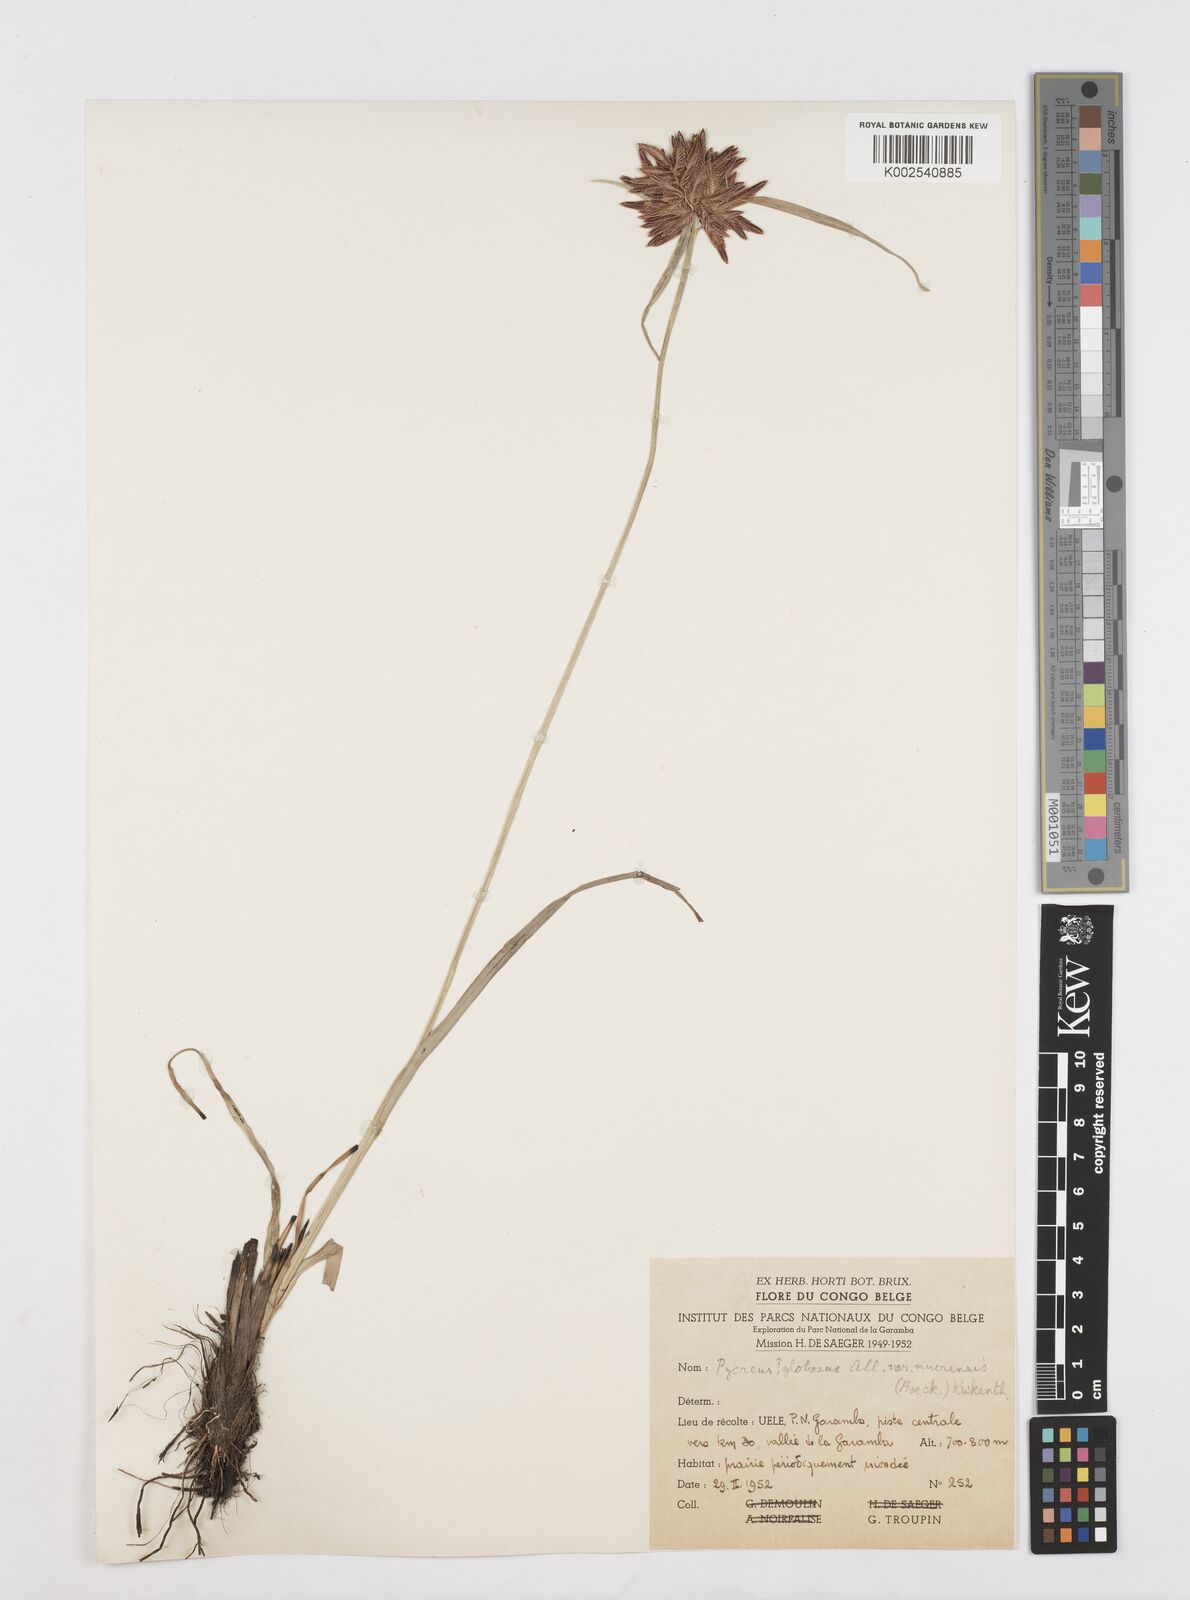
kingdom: Plantae
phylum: Tracheophyta
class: Liliopsida
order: Poales
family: Cyperaceae
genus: Cyperus
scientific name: Cyperus nigricans
